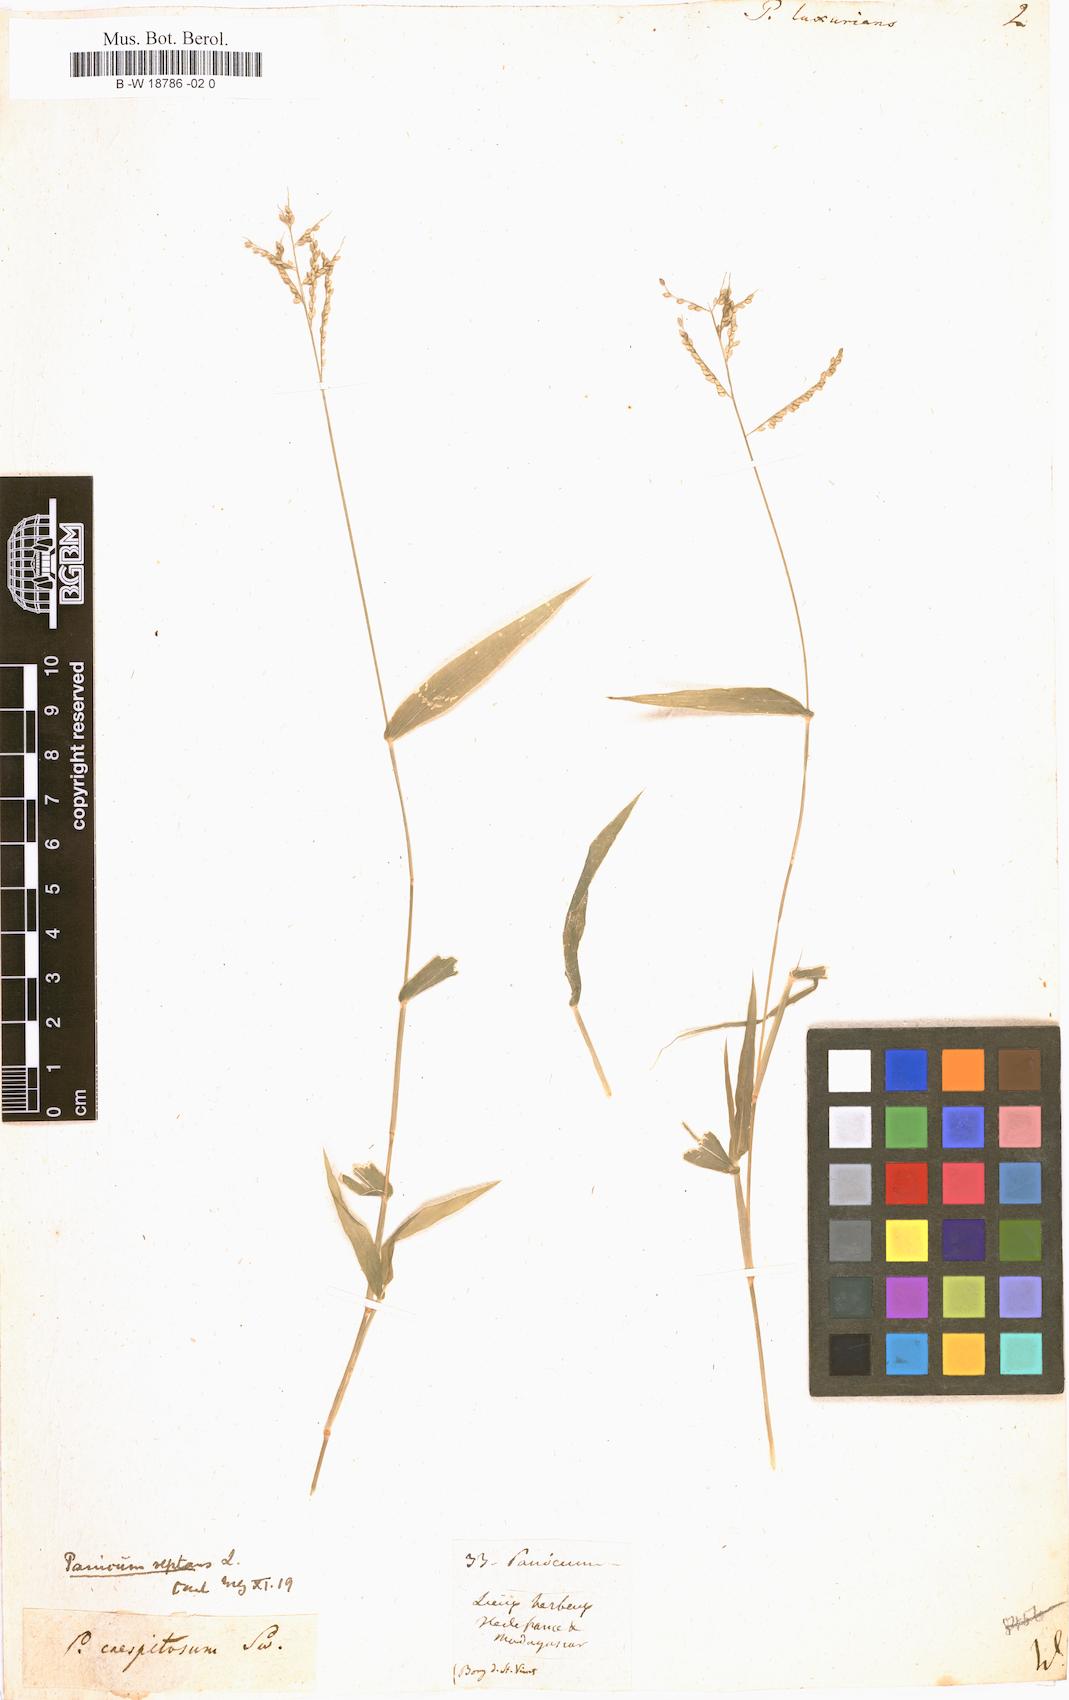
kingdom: Plantae
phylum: Tracheophyta
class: Liliopsida
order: Poales
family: Poaceae
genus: Panicum
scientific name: Panicum luxurians
